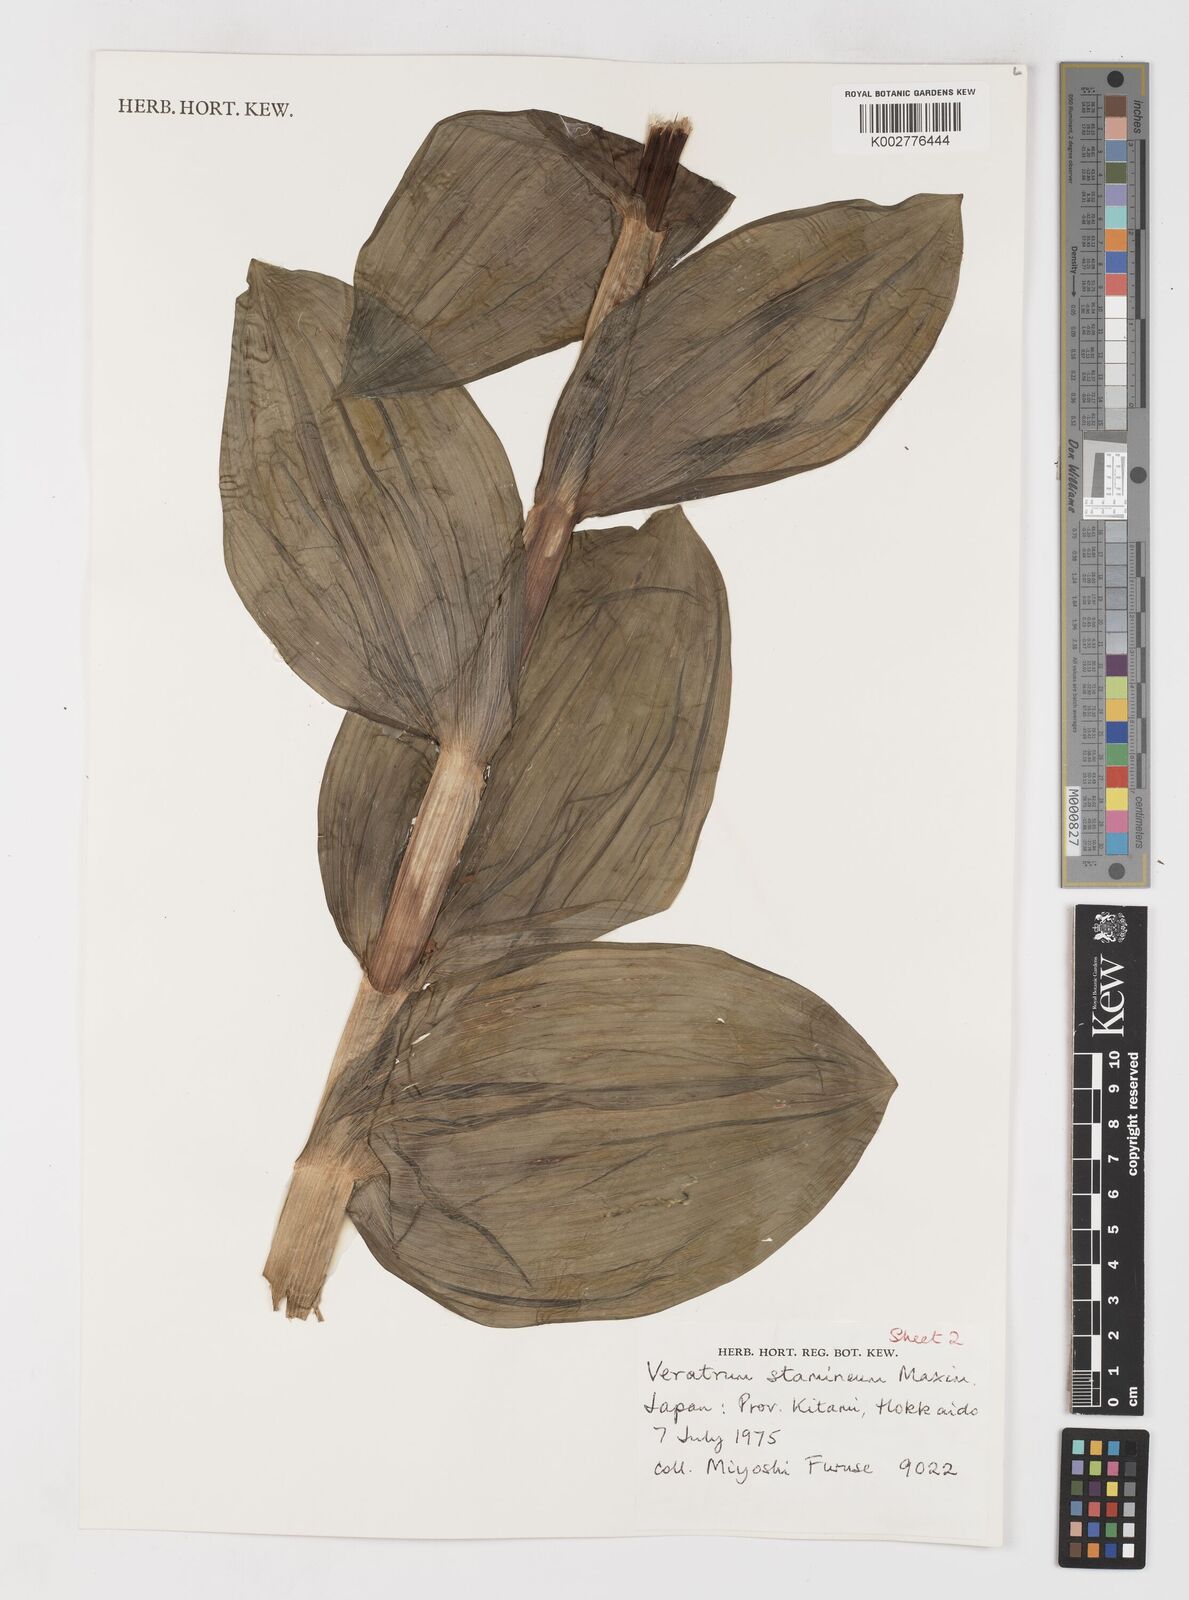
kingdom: Plantae
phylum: Tracheophyta
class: Liliopsida
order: Liliales
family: Melanthiaceae
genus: Veratrum
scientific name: Veratrum stamineum
